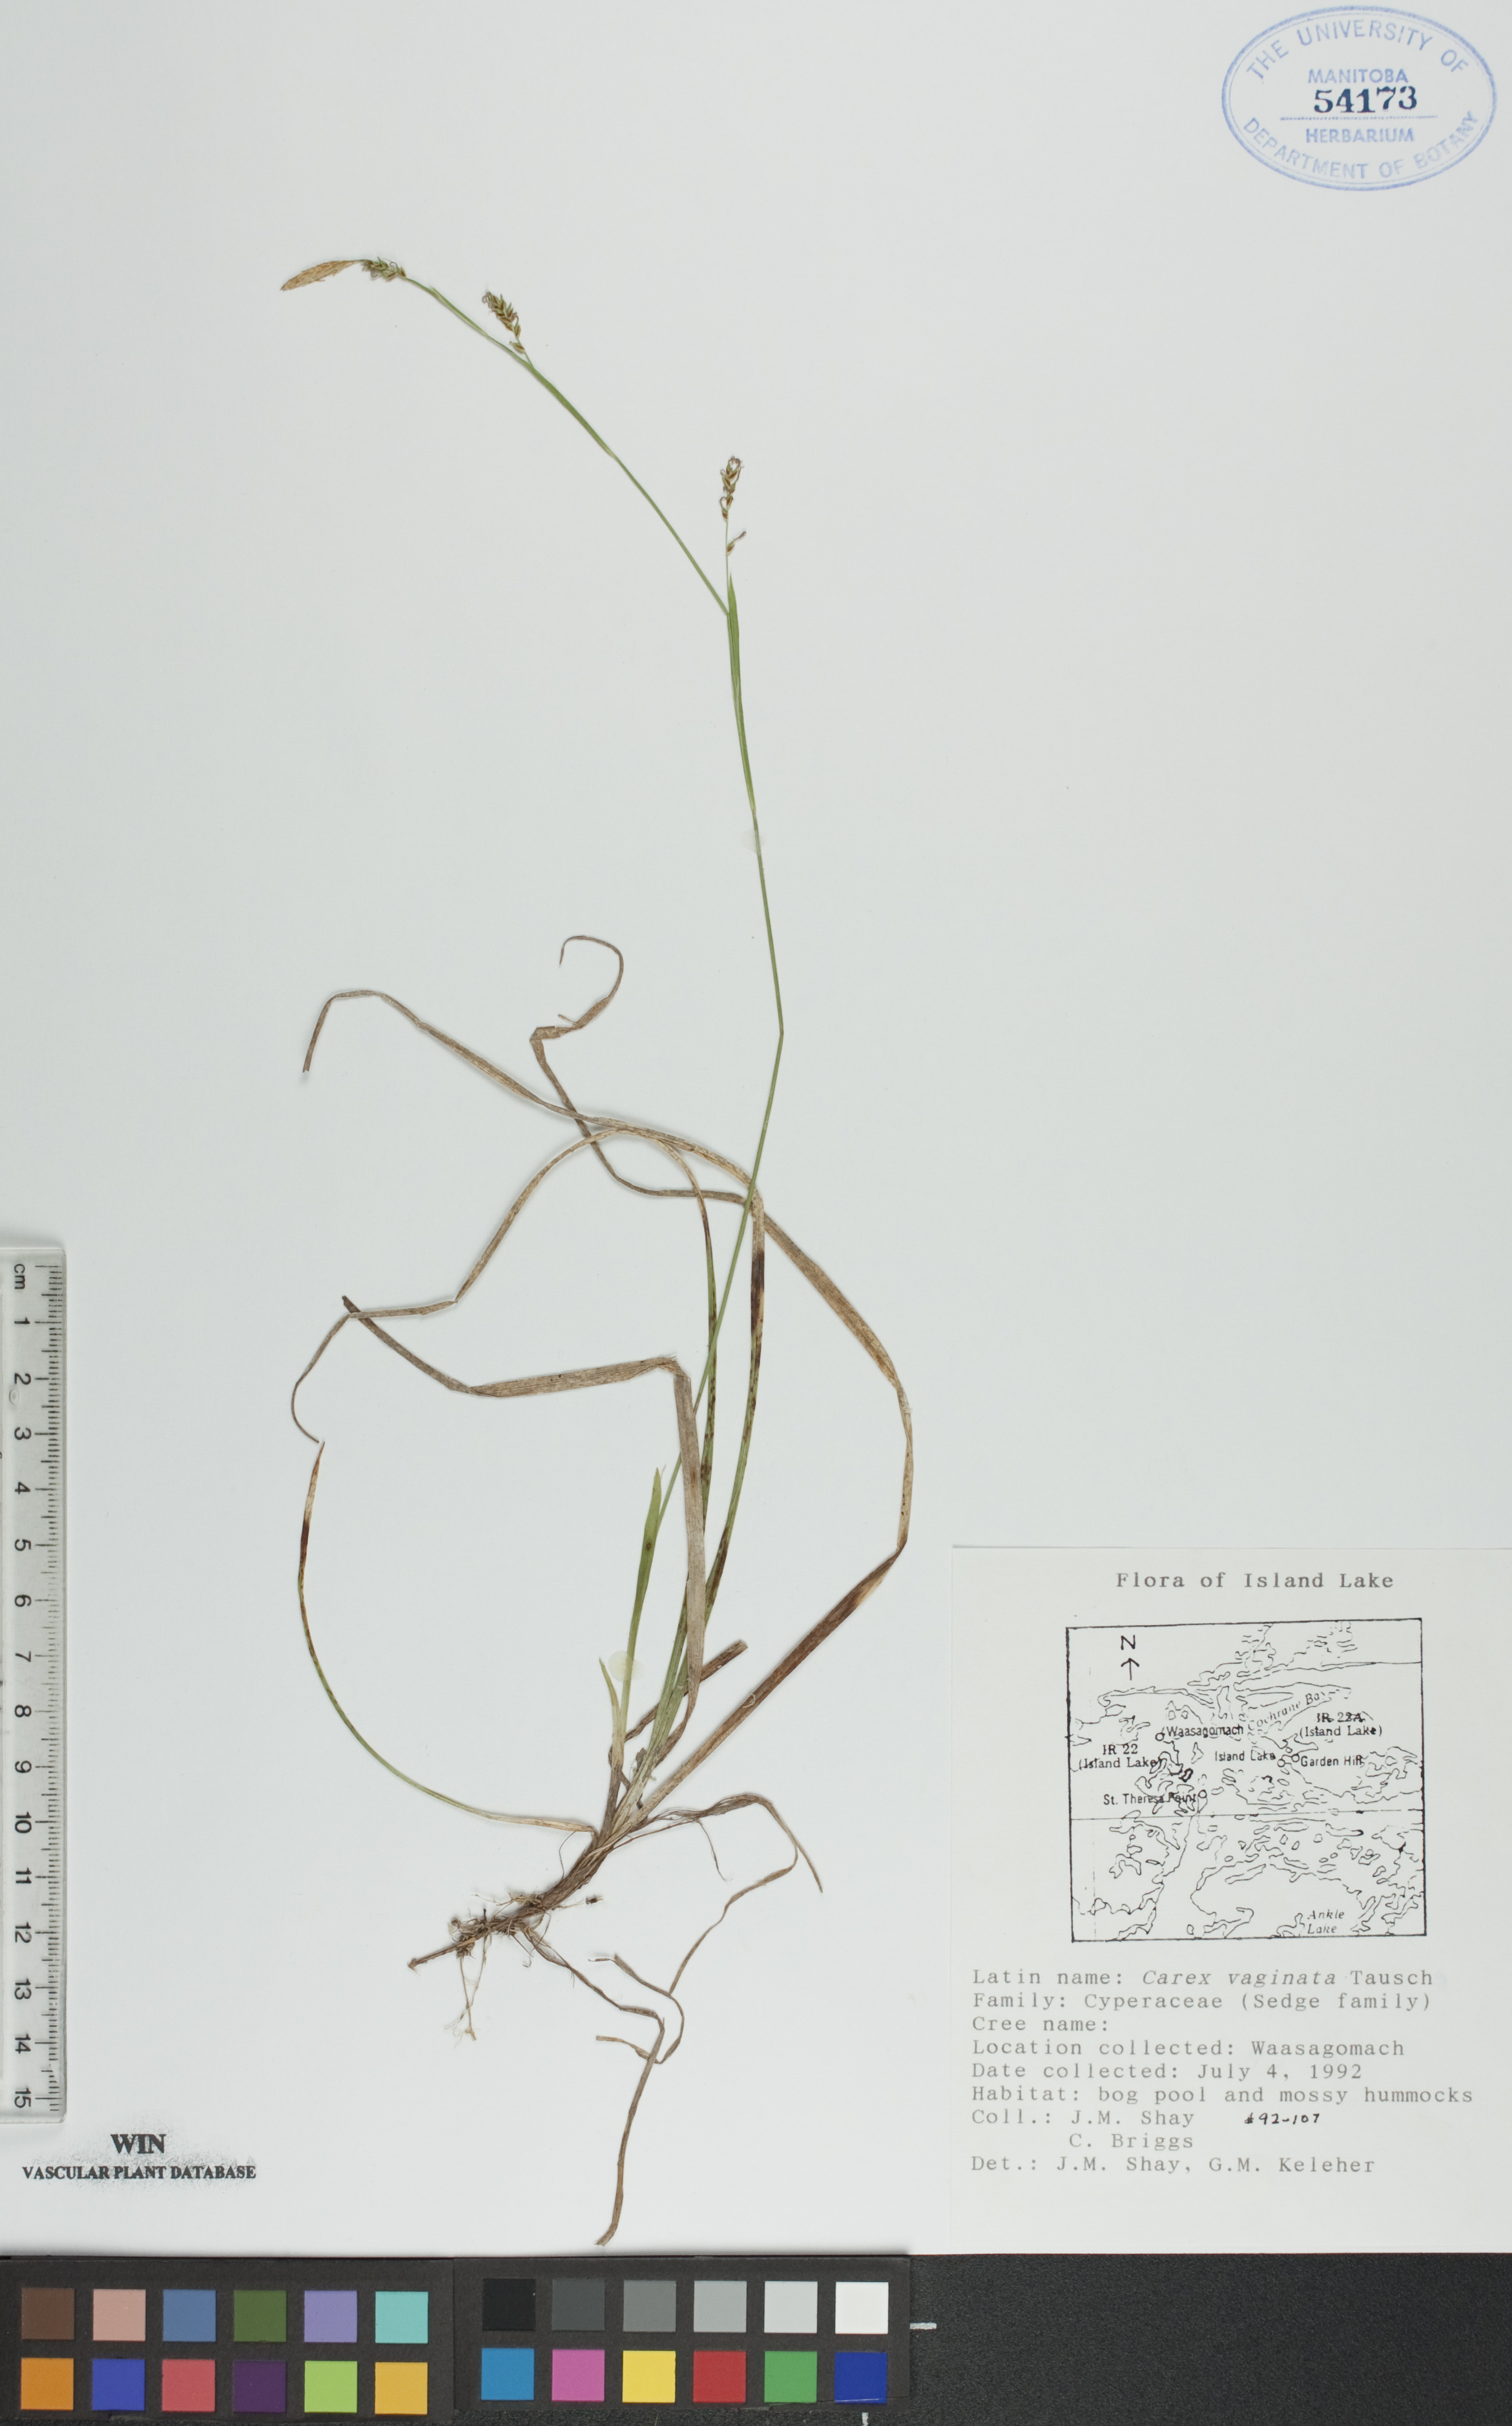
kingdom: Plantae
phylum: Tracheophyta
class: Liliopsida
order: Poales
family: Cyperaceae
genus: Carex
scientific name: Carex vaginata
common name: Sheathed sedge
